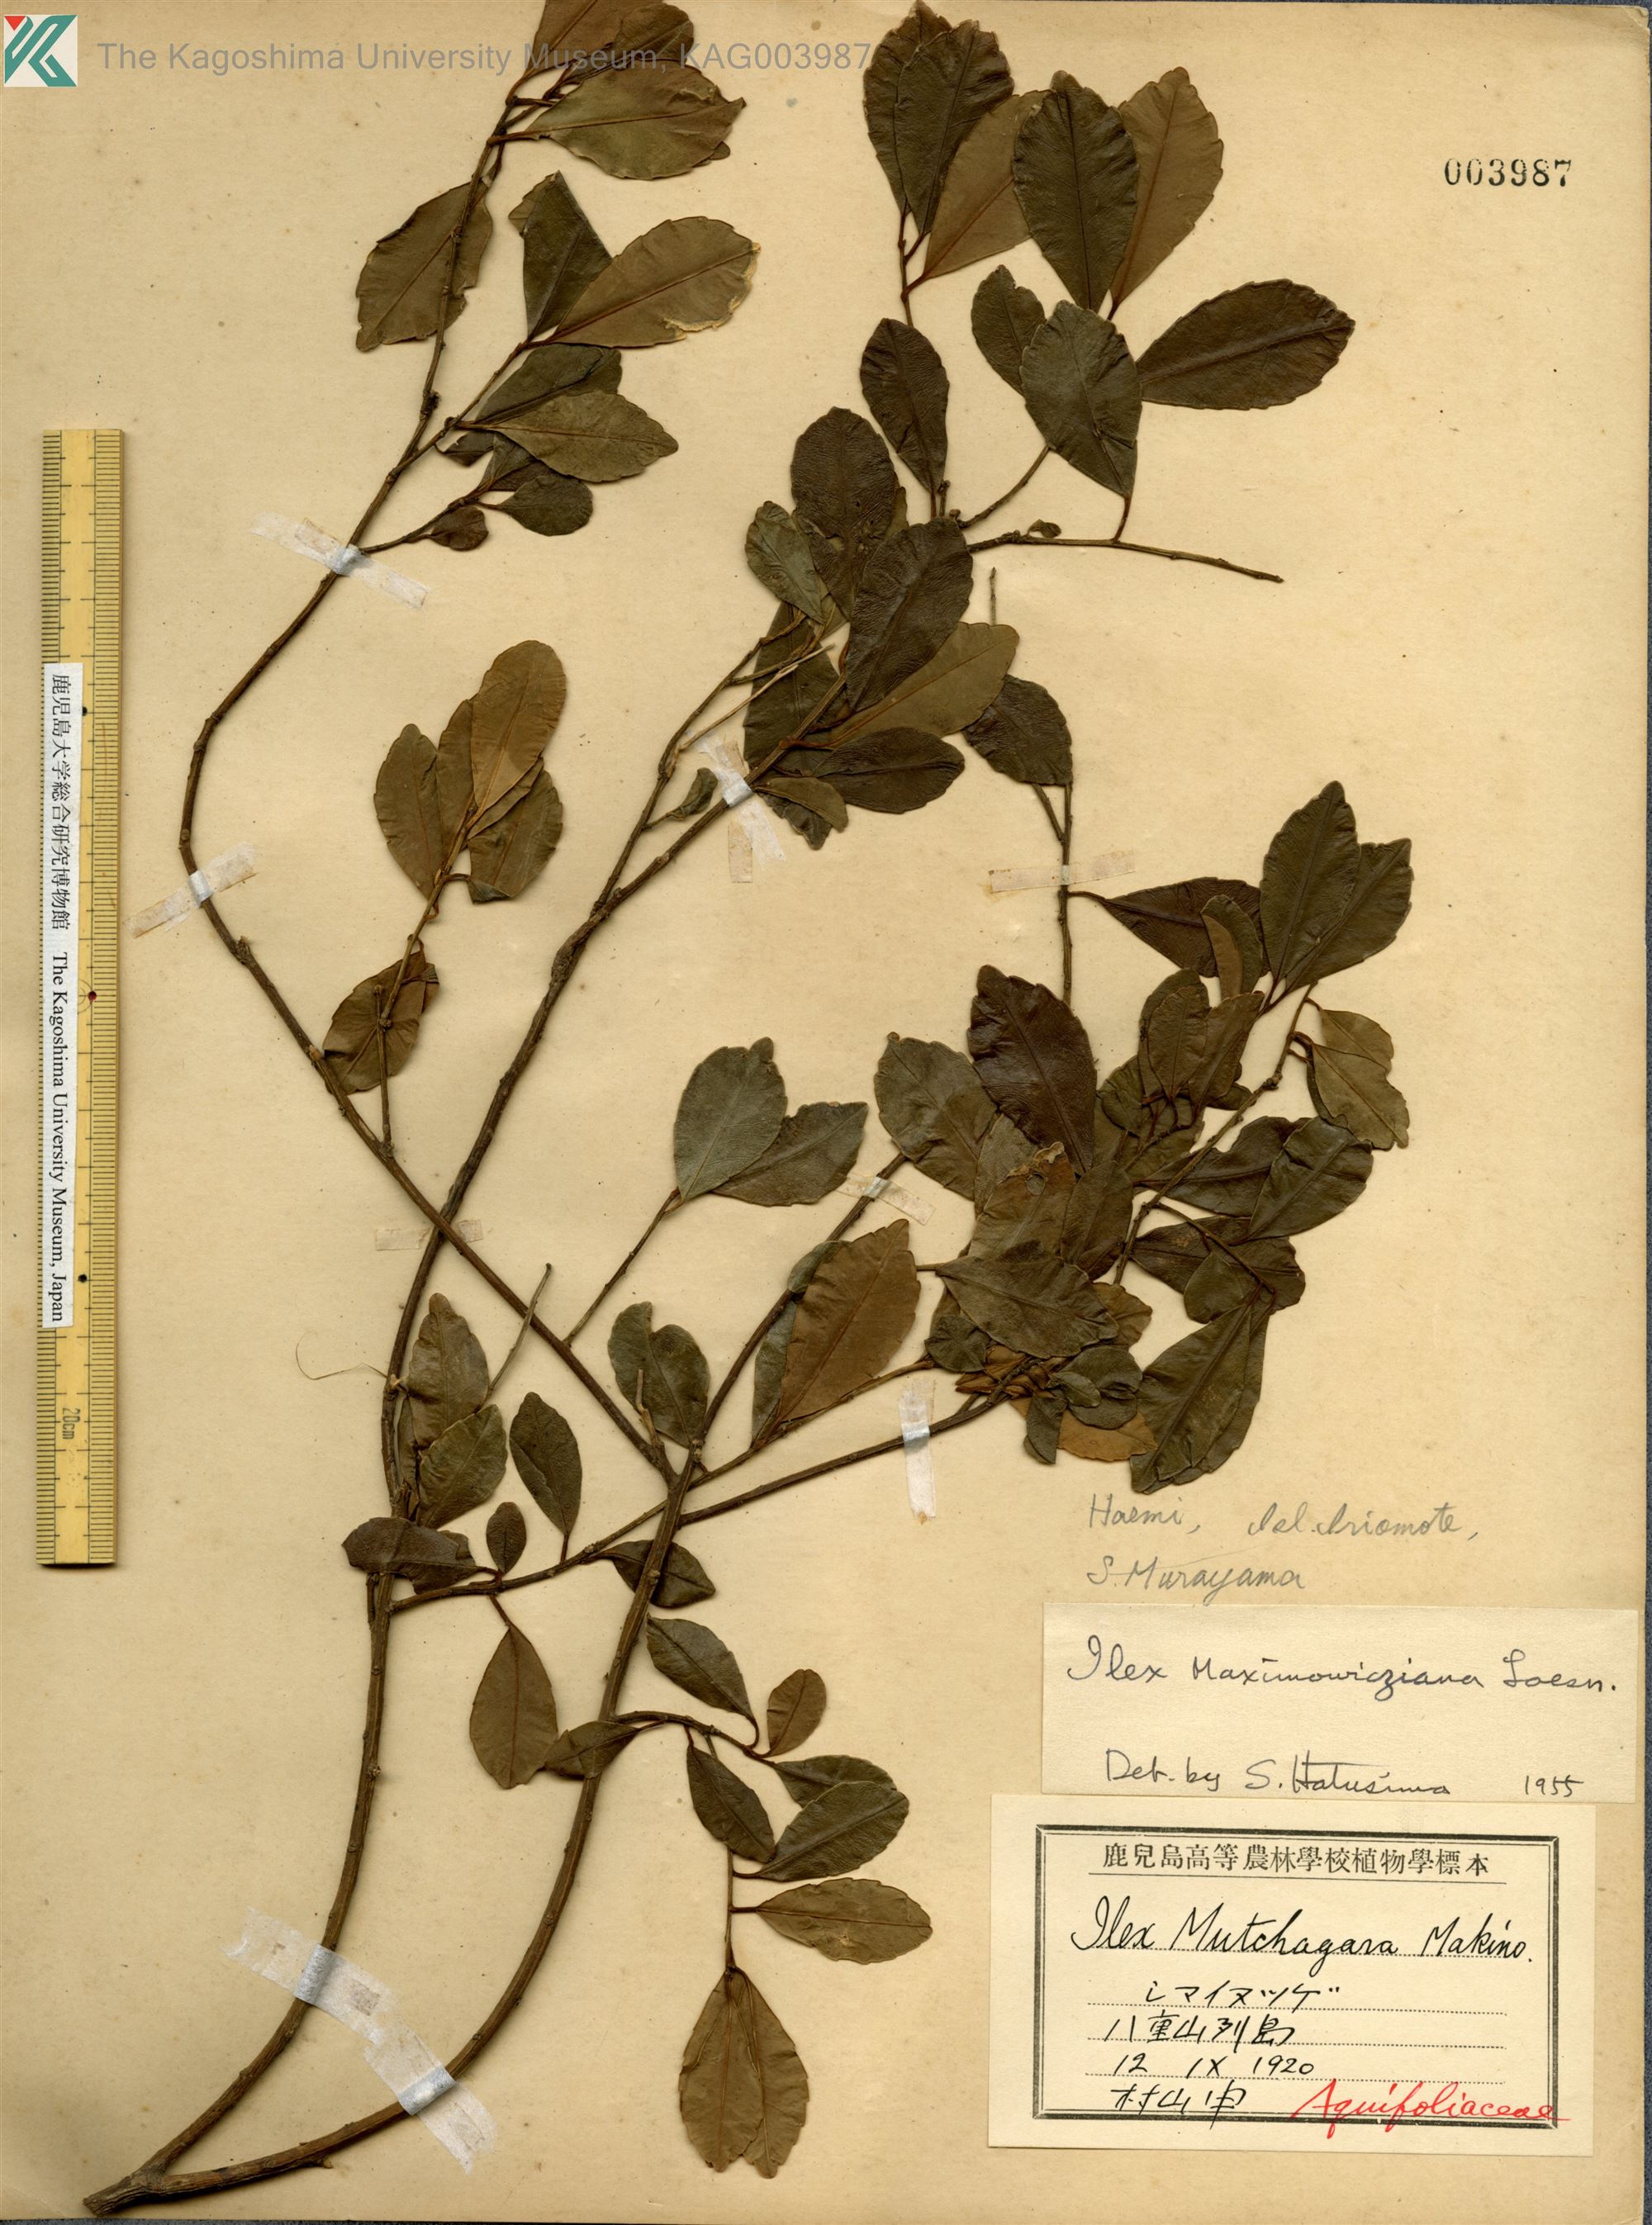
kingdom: Plantae
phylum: Tracheophyta
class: Magnoliopsida
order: Aquifoliales
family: Aquifoliaceae
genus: Ilex
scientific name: Ilex maximowicziana
